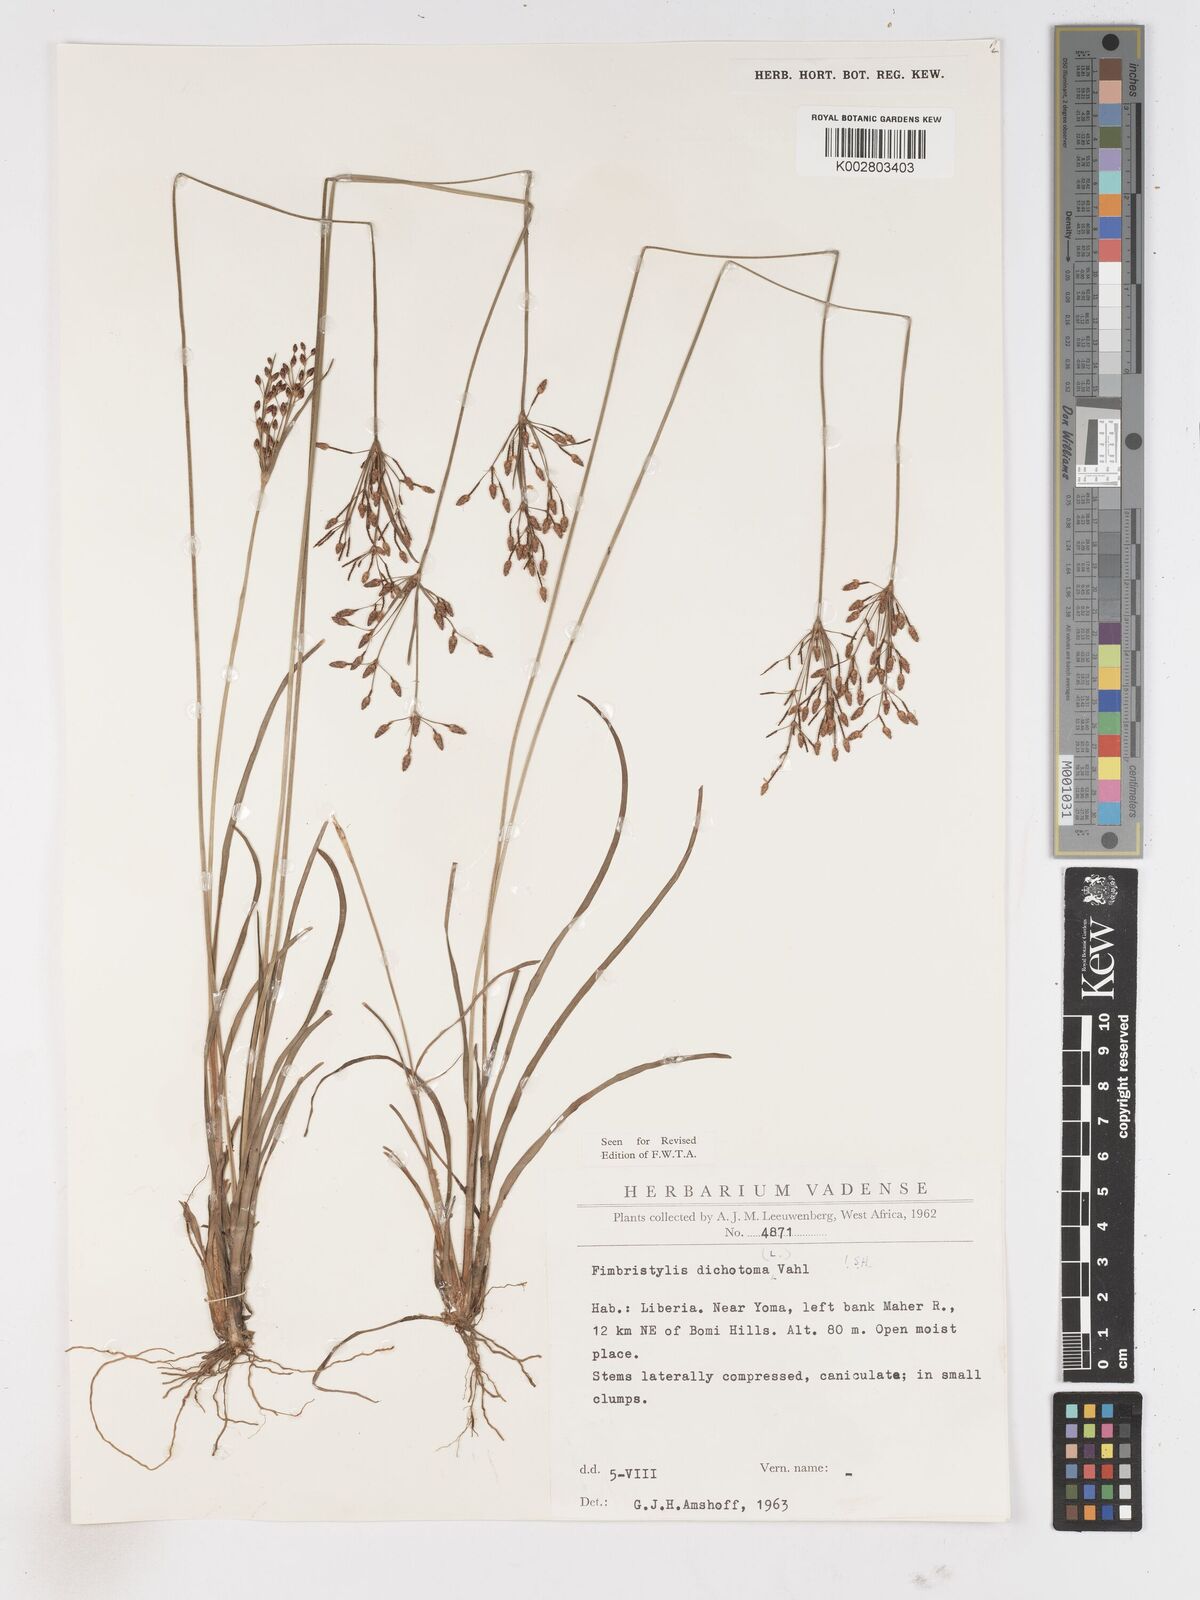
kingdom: Plantae
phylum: Tracheophyta
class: Liliopsida
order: Poales
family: Cyperaceae
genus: Fimbristylis
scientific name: Fimbristylis dichotoma
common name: Forked fimbry
